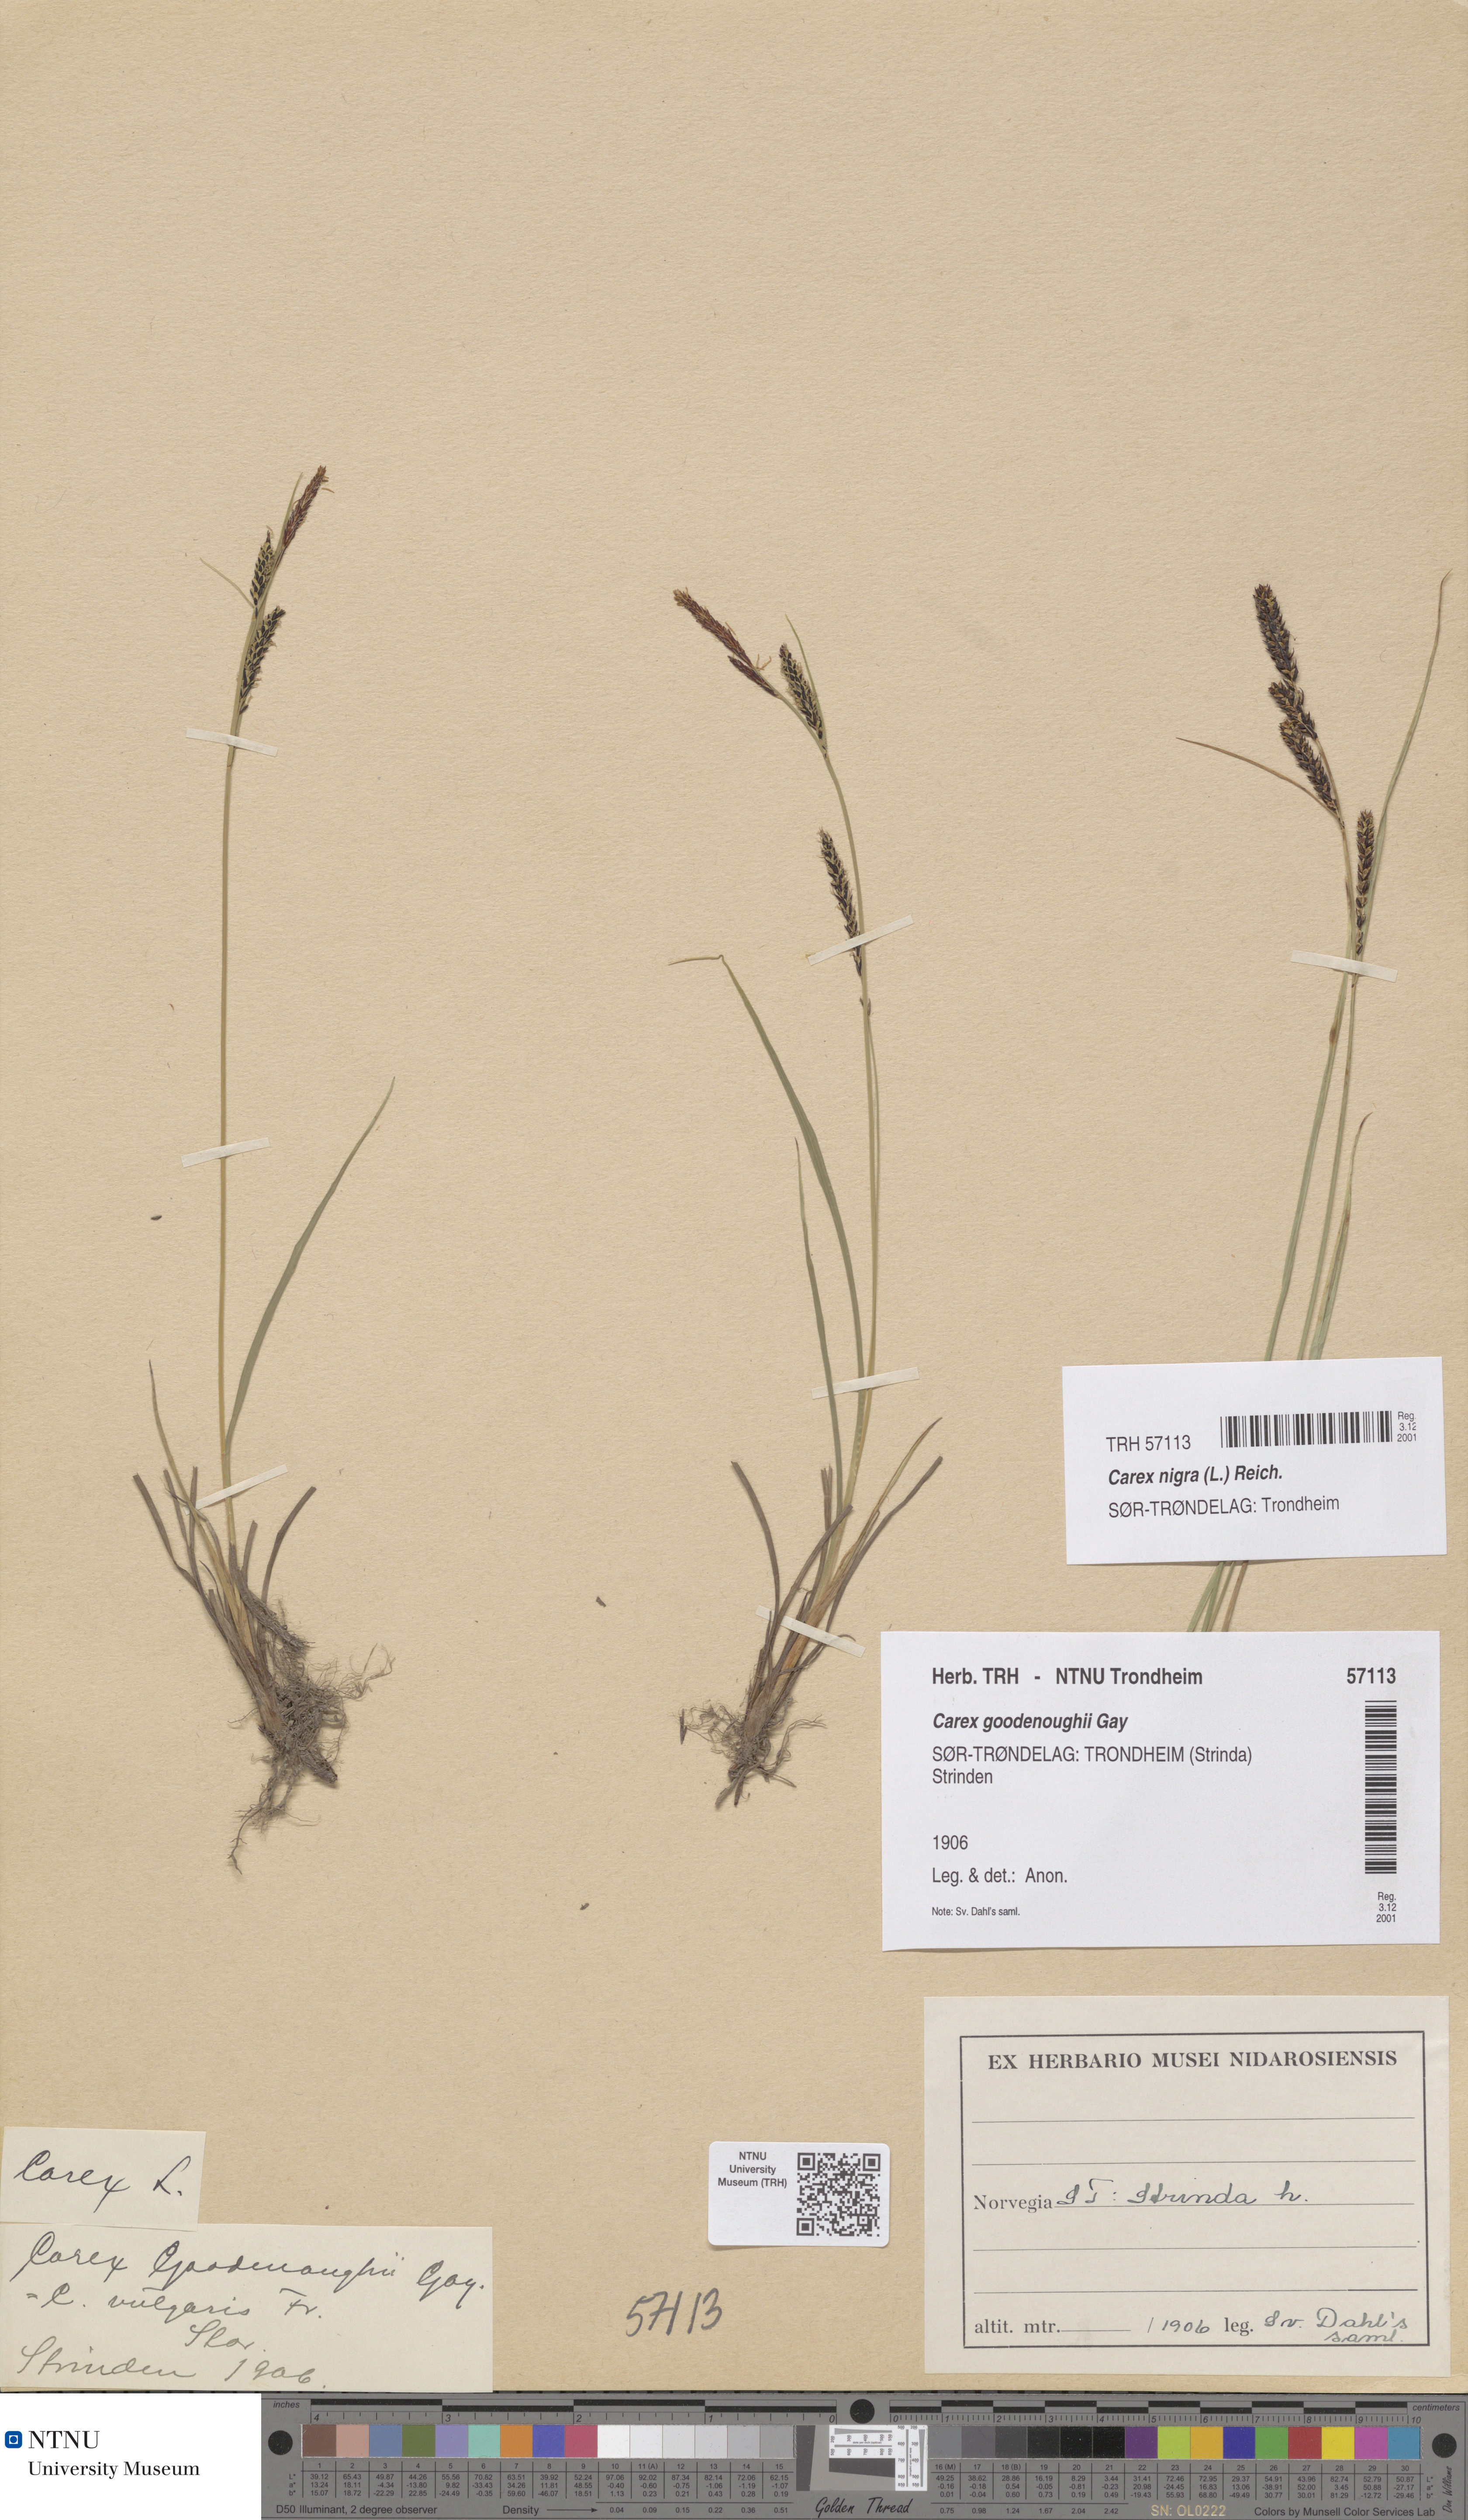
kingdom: Plantae
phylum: Tracheophyta
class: Liliopsida
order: Poales
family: Cyperaceae
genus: Carex
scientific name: Carex nigra
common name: Common sedge
